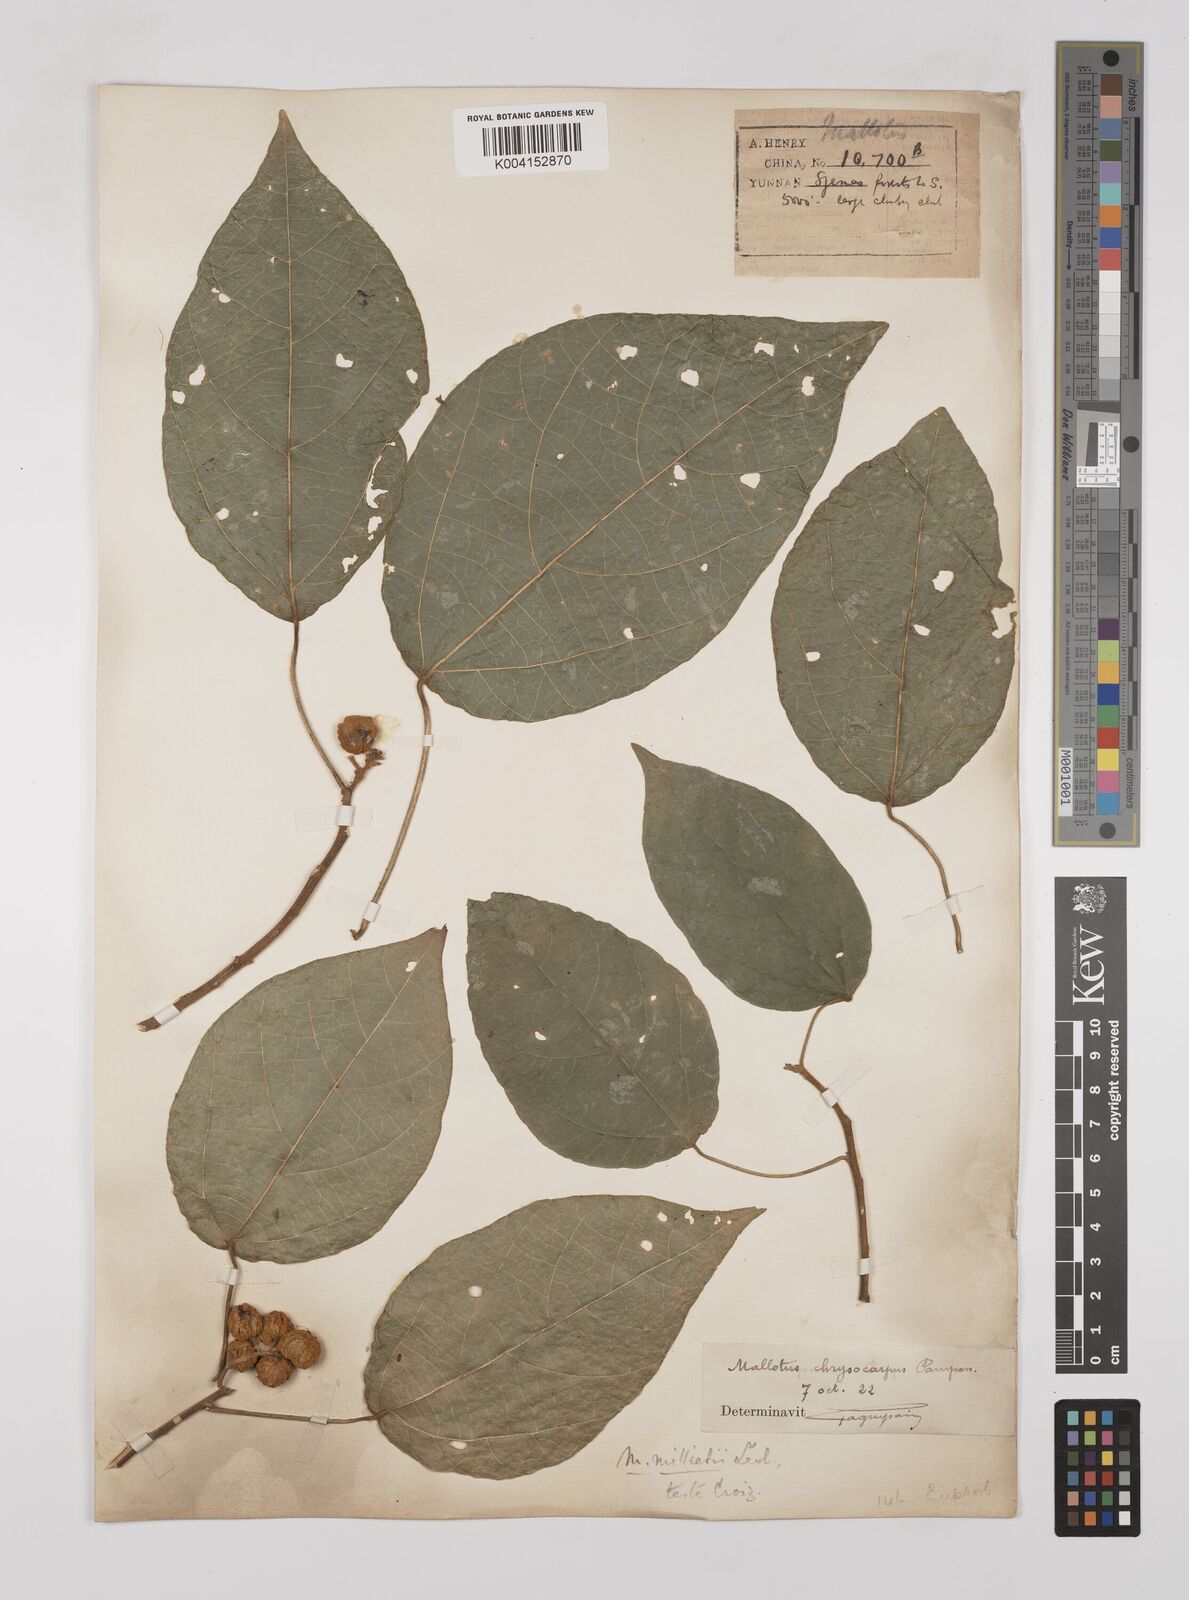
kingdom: Plantae
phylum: Tracheophyta
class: Magnoliopsida
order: Malpighiales
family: Euphorbiaceae
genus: Mallotus
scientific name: Mallotus millietii
